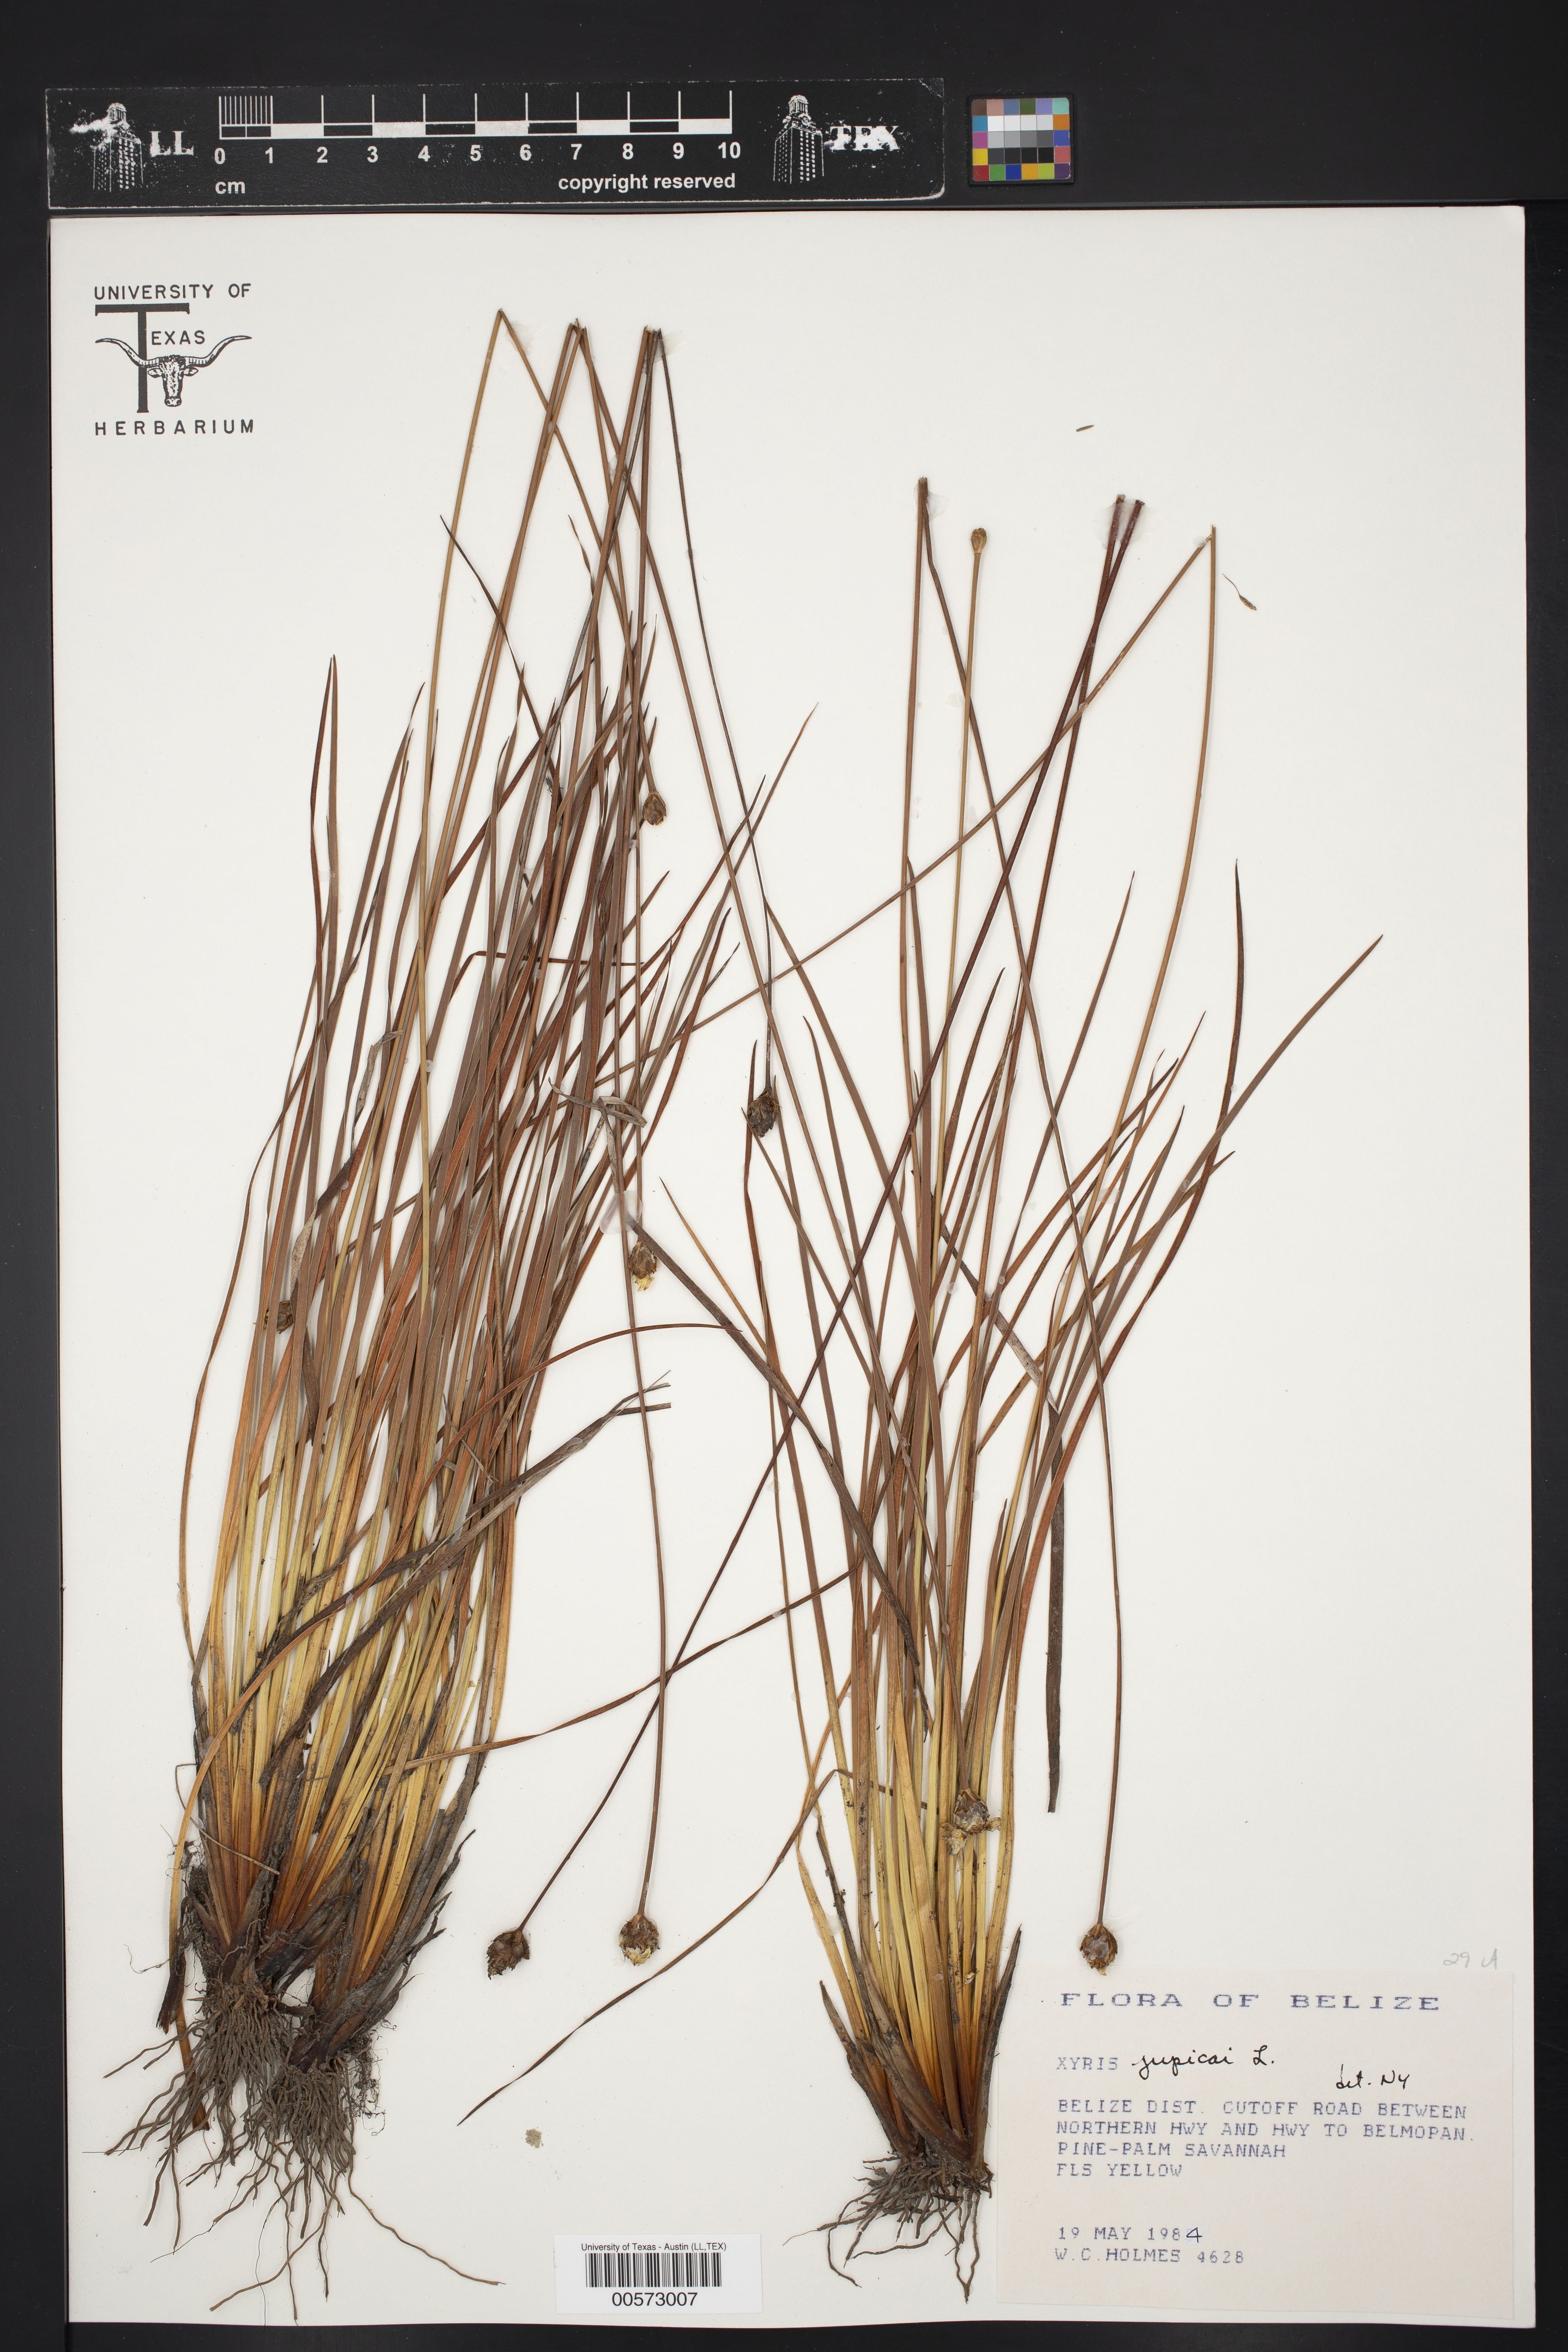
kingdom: Plantae
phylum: Tracheophyta
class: Liliopsida
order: Poales
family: Xyridaceae
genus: Xyris
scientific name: Xyris jupicai
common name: Richard's yelloweyed grass
